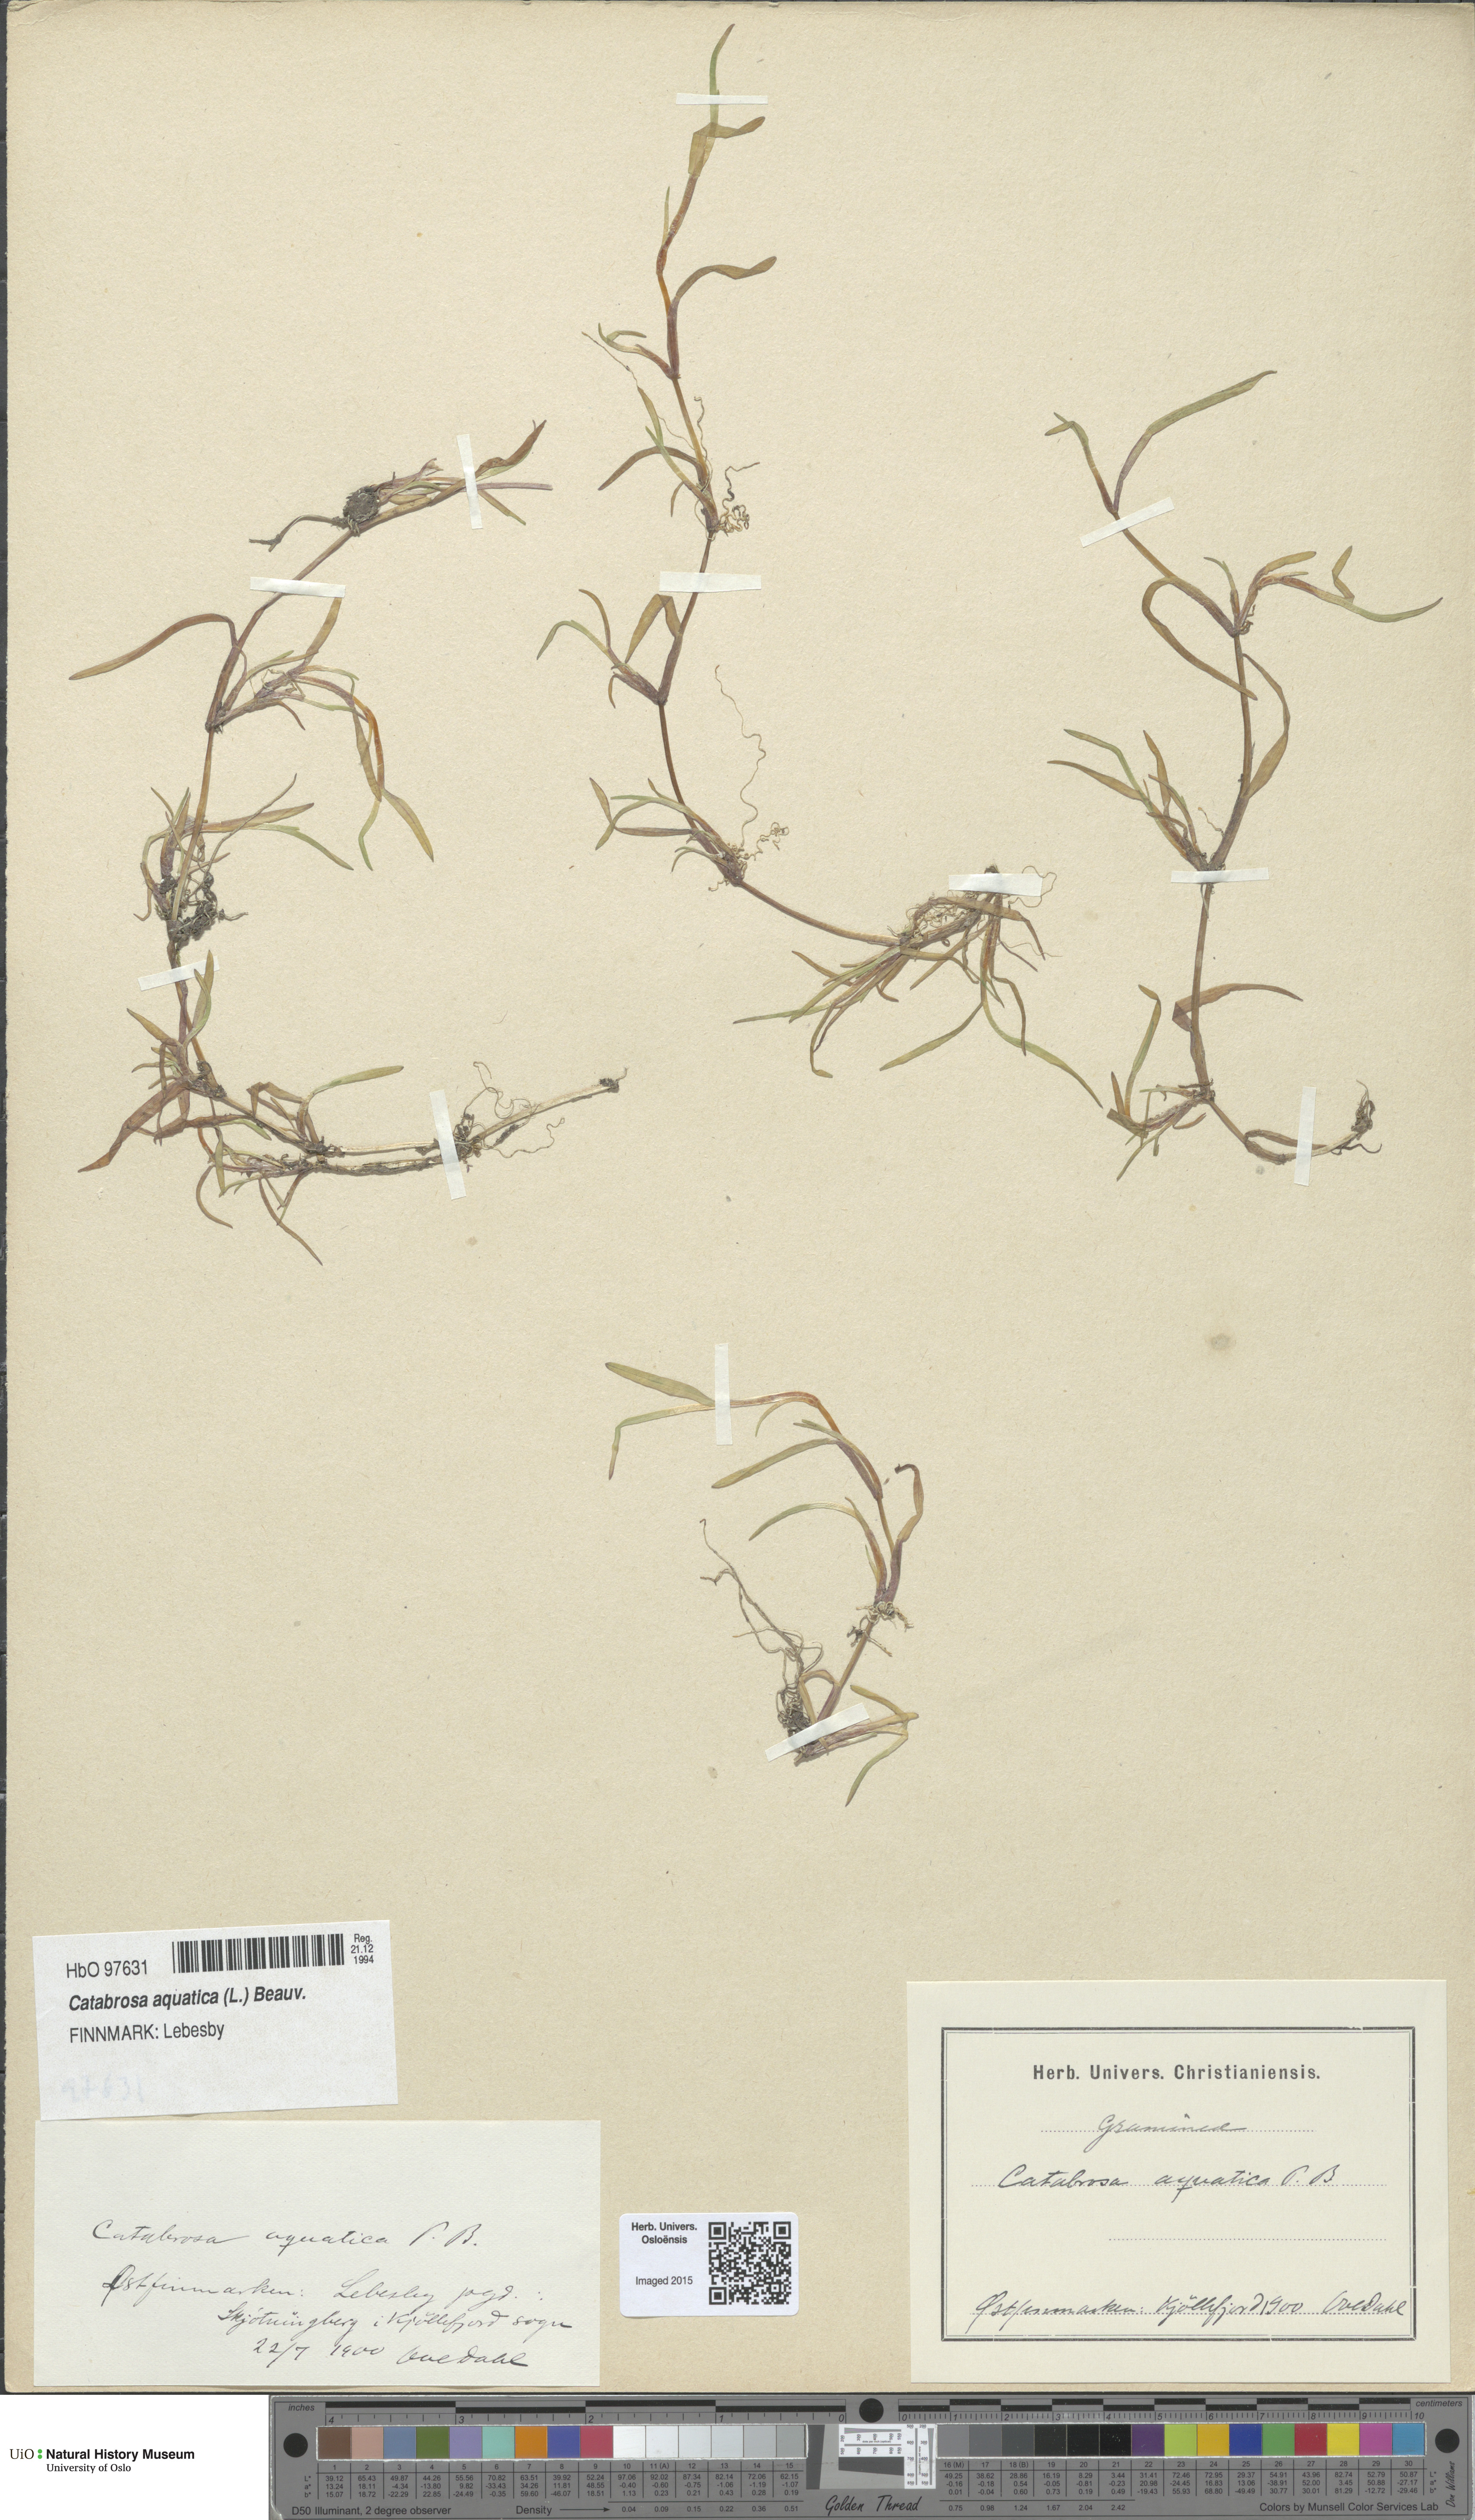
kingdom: Plantae
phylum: Tracheophyta
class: Liliopsida
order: Poales
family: Poaceae
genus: Catabrosa
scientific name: Catabrosa aquatica
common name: Whorl-grass
